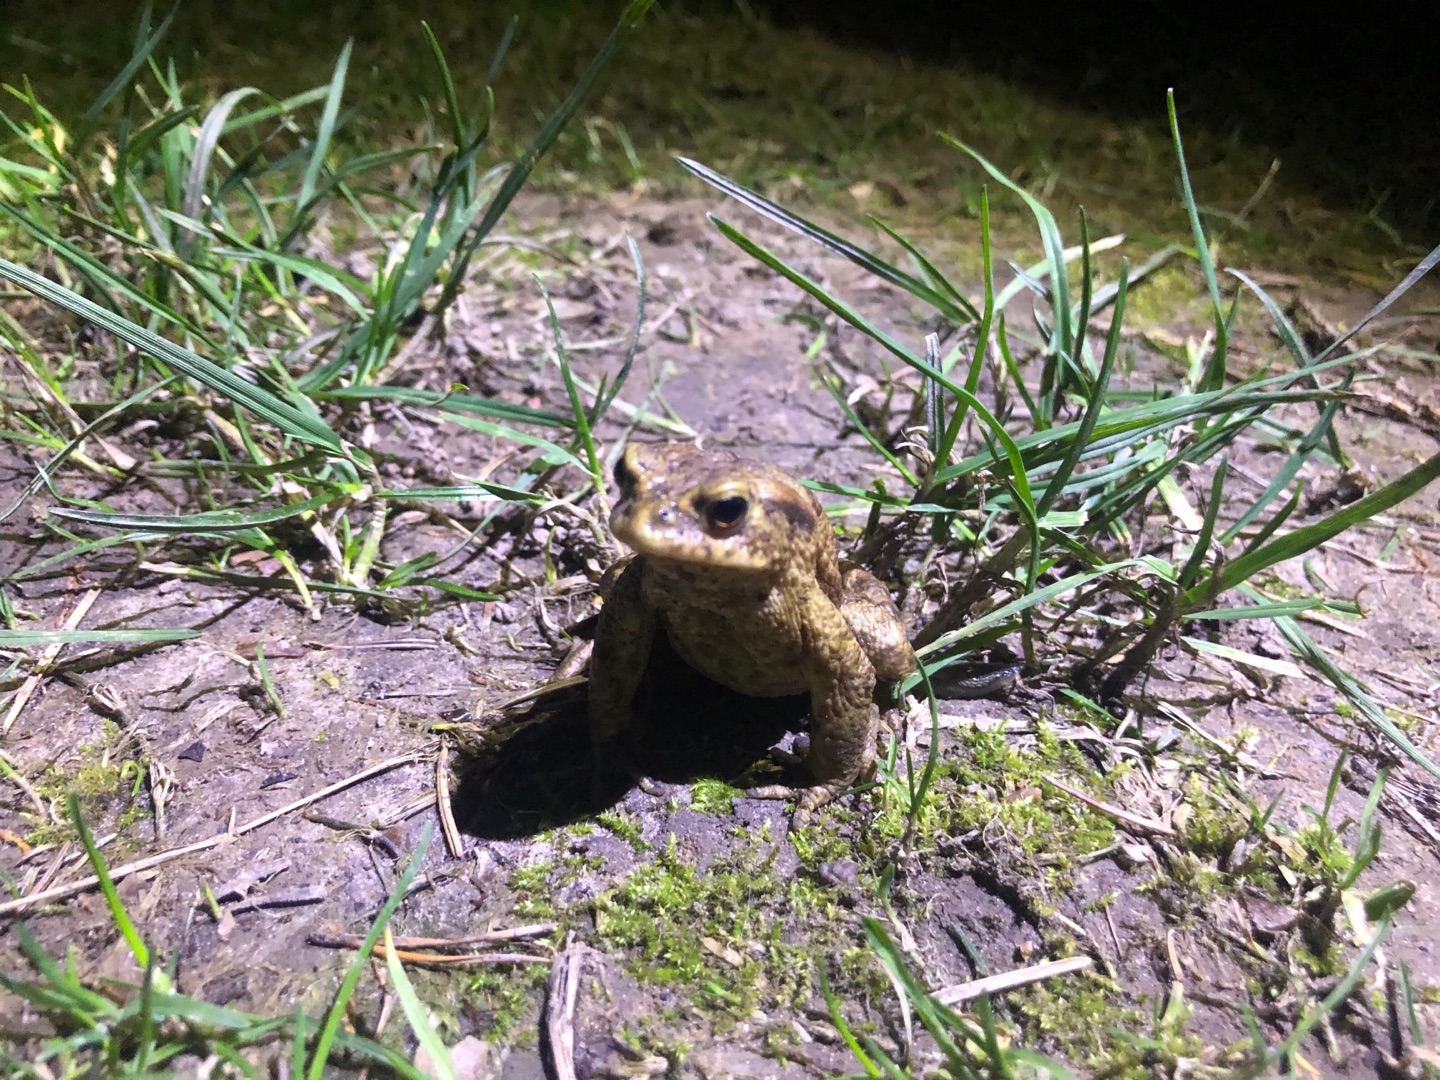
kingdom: Animalia
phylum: Chordata
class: Amphibia
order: Anura
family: Bufonidae
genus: Bufo
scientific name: Bufo bufo
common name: Skrubtudse
